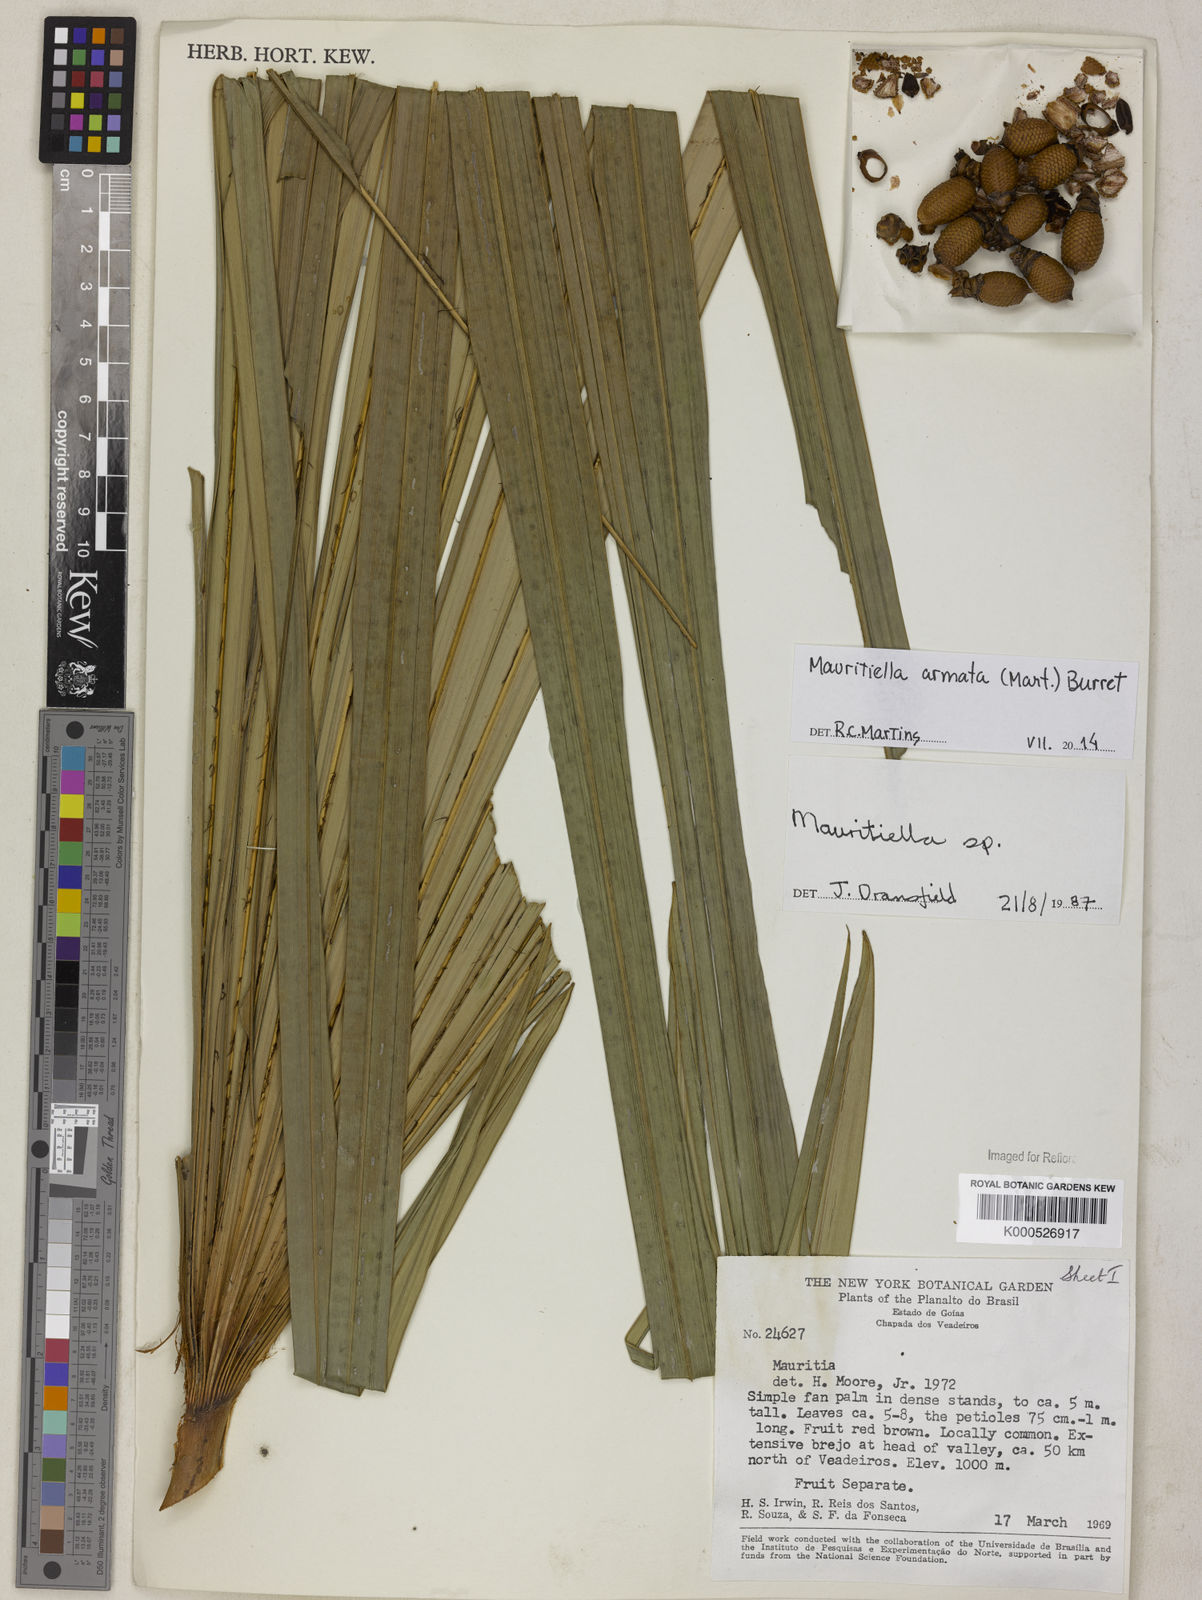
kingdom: Plantae
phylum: Tracheophyta
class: Liliopsida
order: Arecales
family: Arecaceae
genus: Mauritiella
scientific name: Mauritiella armata
